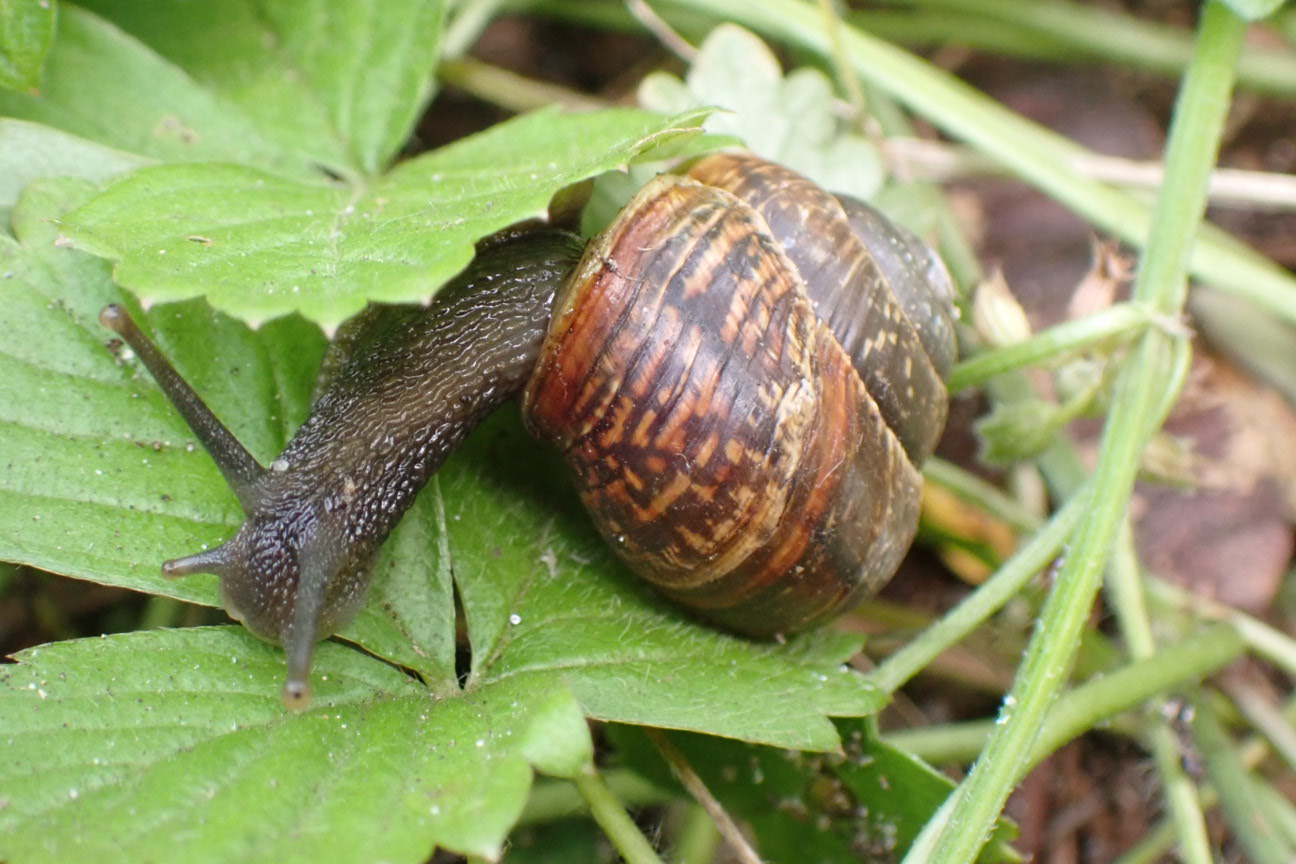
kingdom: Animalia
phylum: Mollusca
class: Gastropoda
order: Stylommatophora
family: Helicidae
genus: Arianta
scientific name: Arianta arbustorum
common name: Kratsnegl
